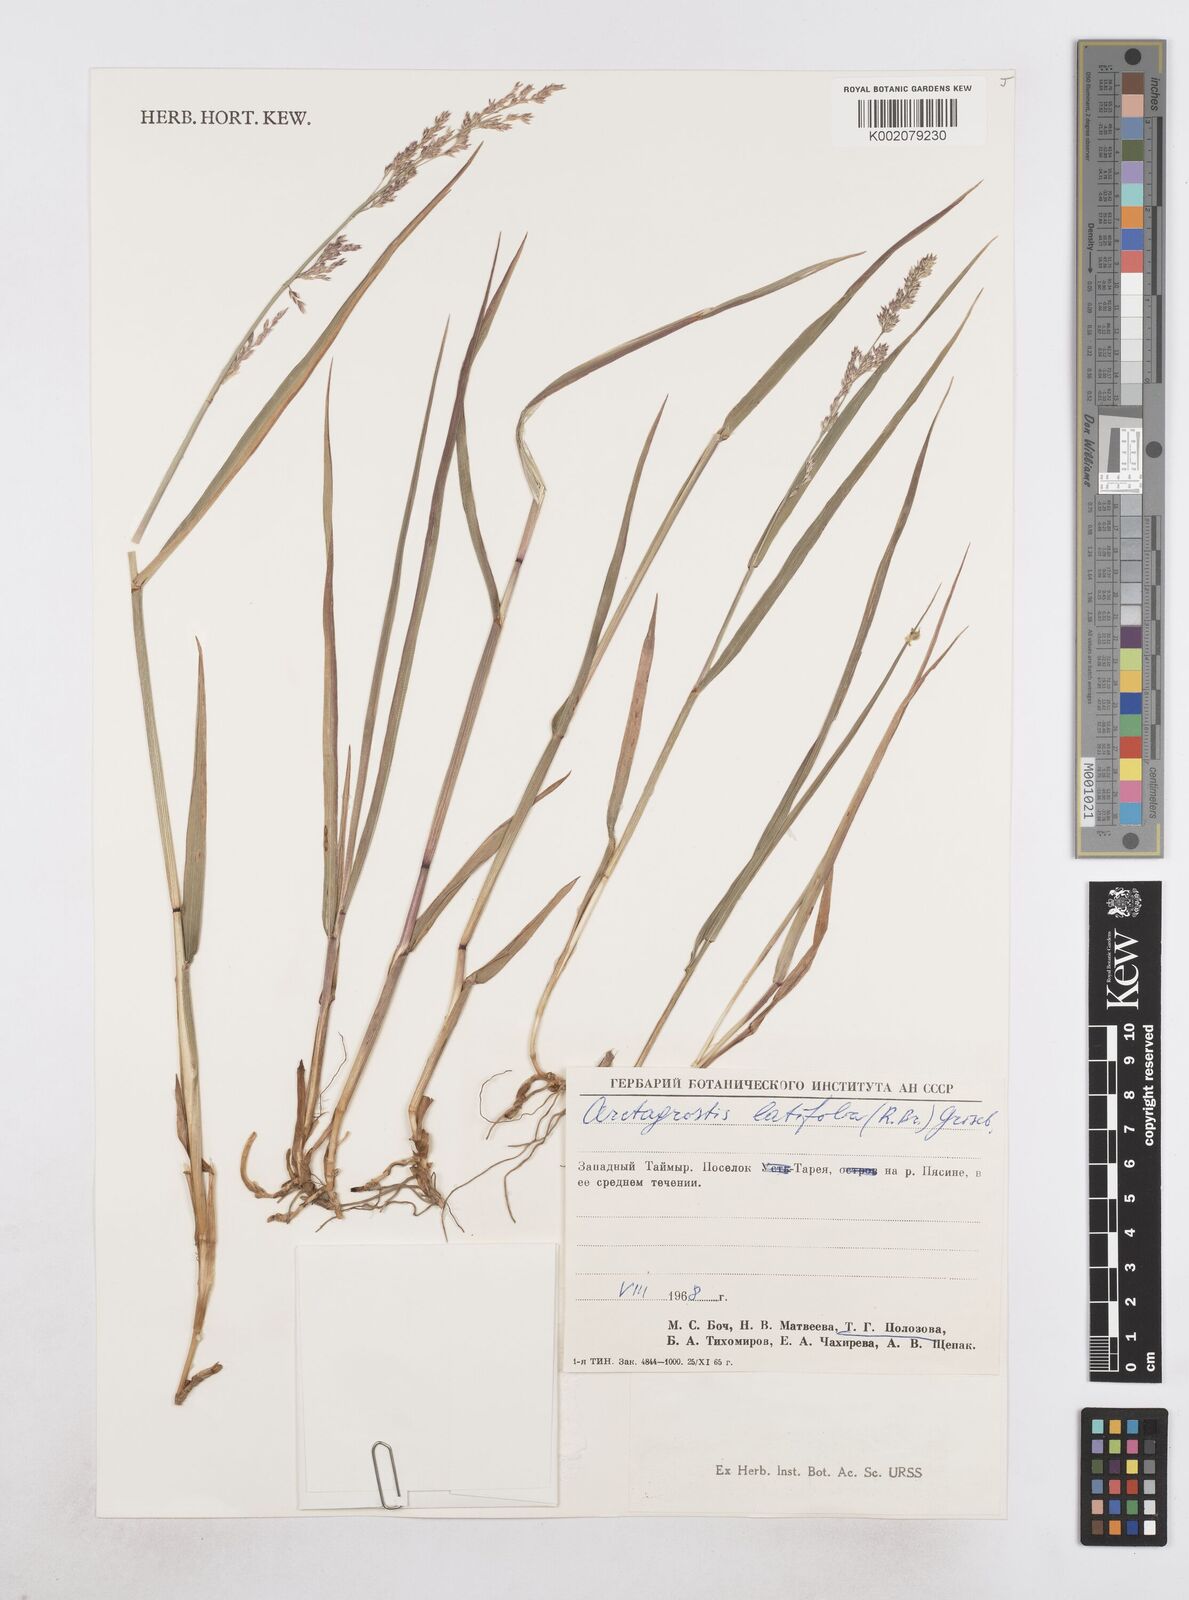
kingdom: Plantae
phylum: Tracheophyta
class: Liliopsida
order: Poales
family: Poaceae
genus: Arctagrostis
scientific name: Arctagrostis latifolia
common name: Arctic grass
